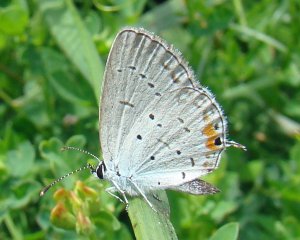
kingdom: Animalia
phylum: Arthropoda
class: Insecta
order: Lepidoptera
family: Lycaenidae
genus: Elkalyce
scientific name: Elkalyce comyntas
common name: Eastern Tailed-Blue
